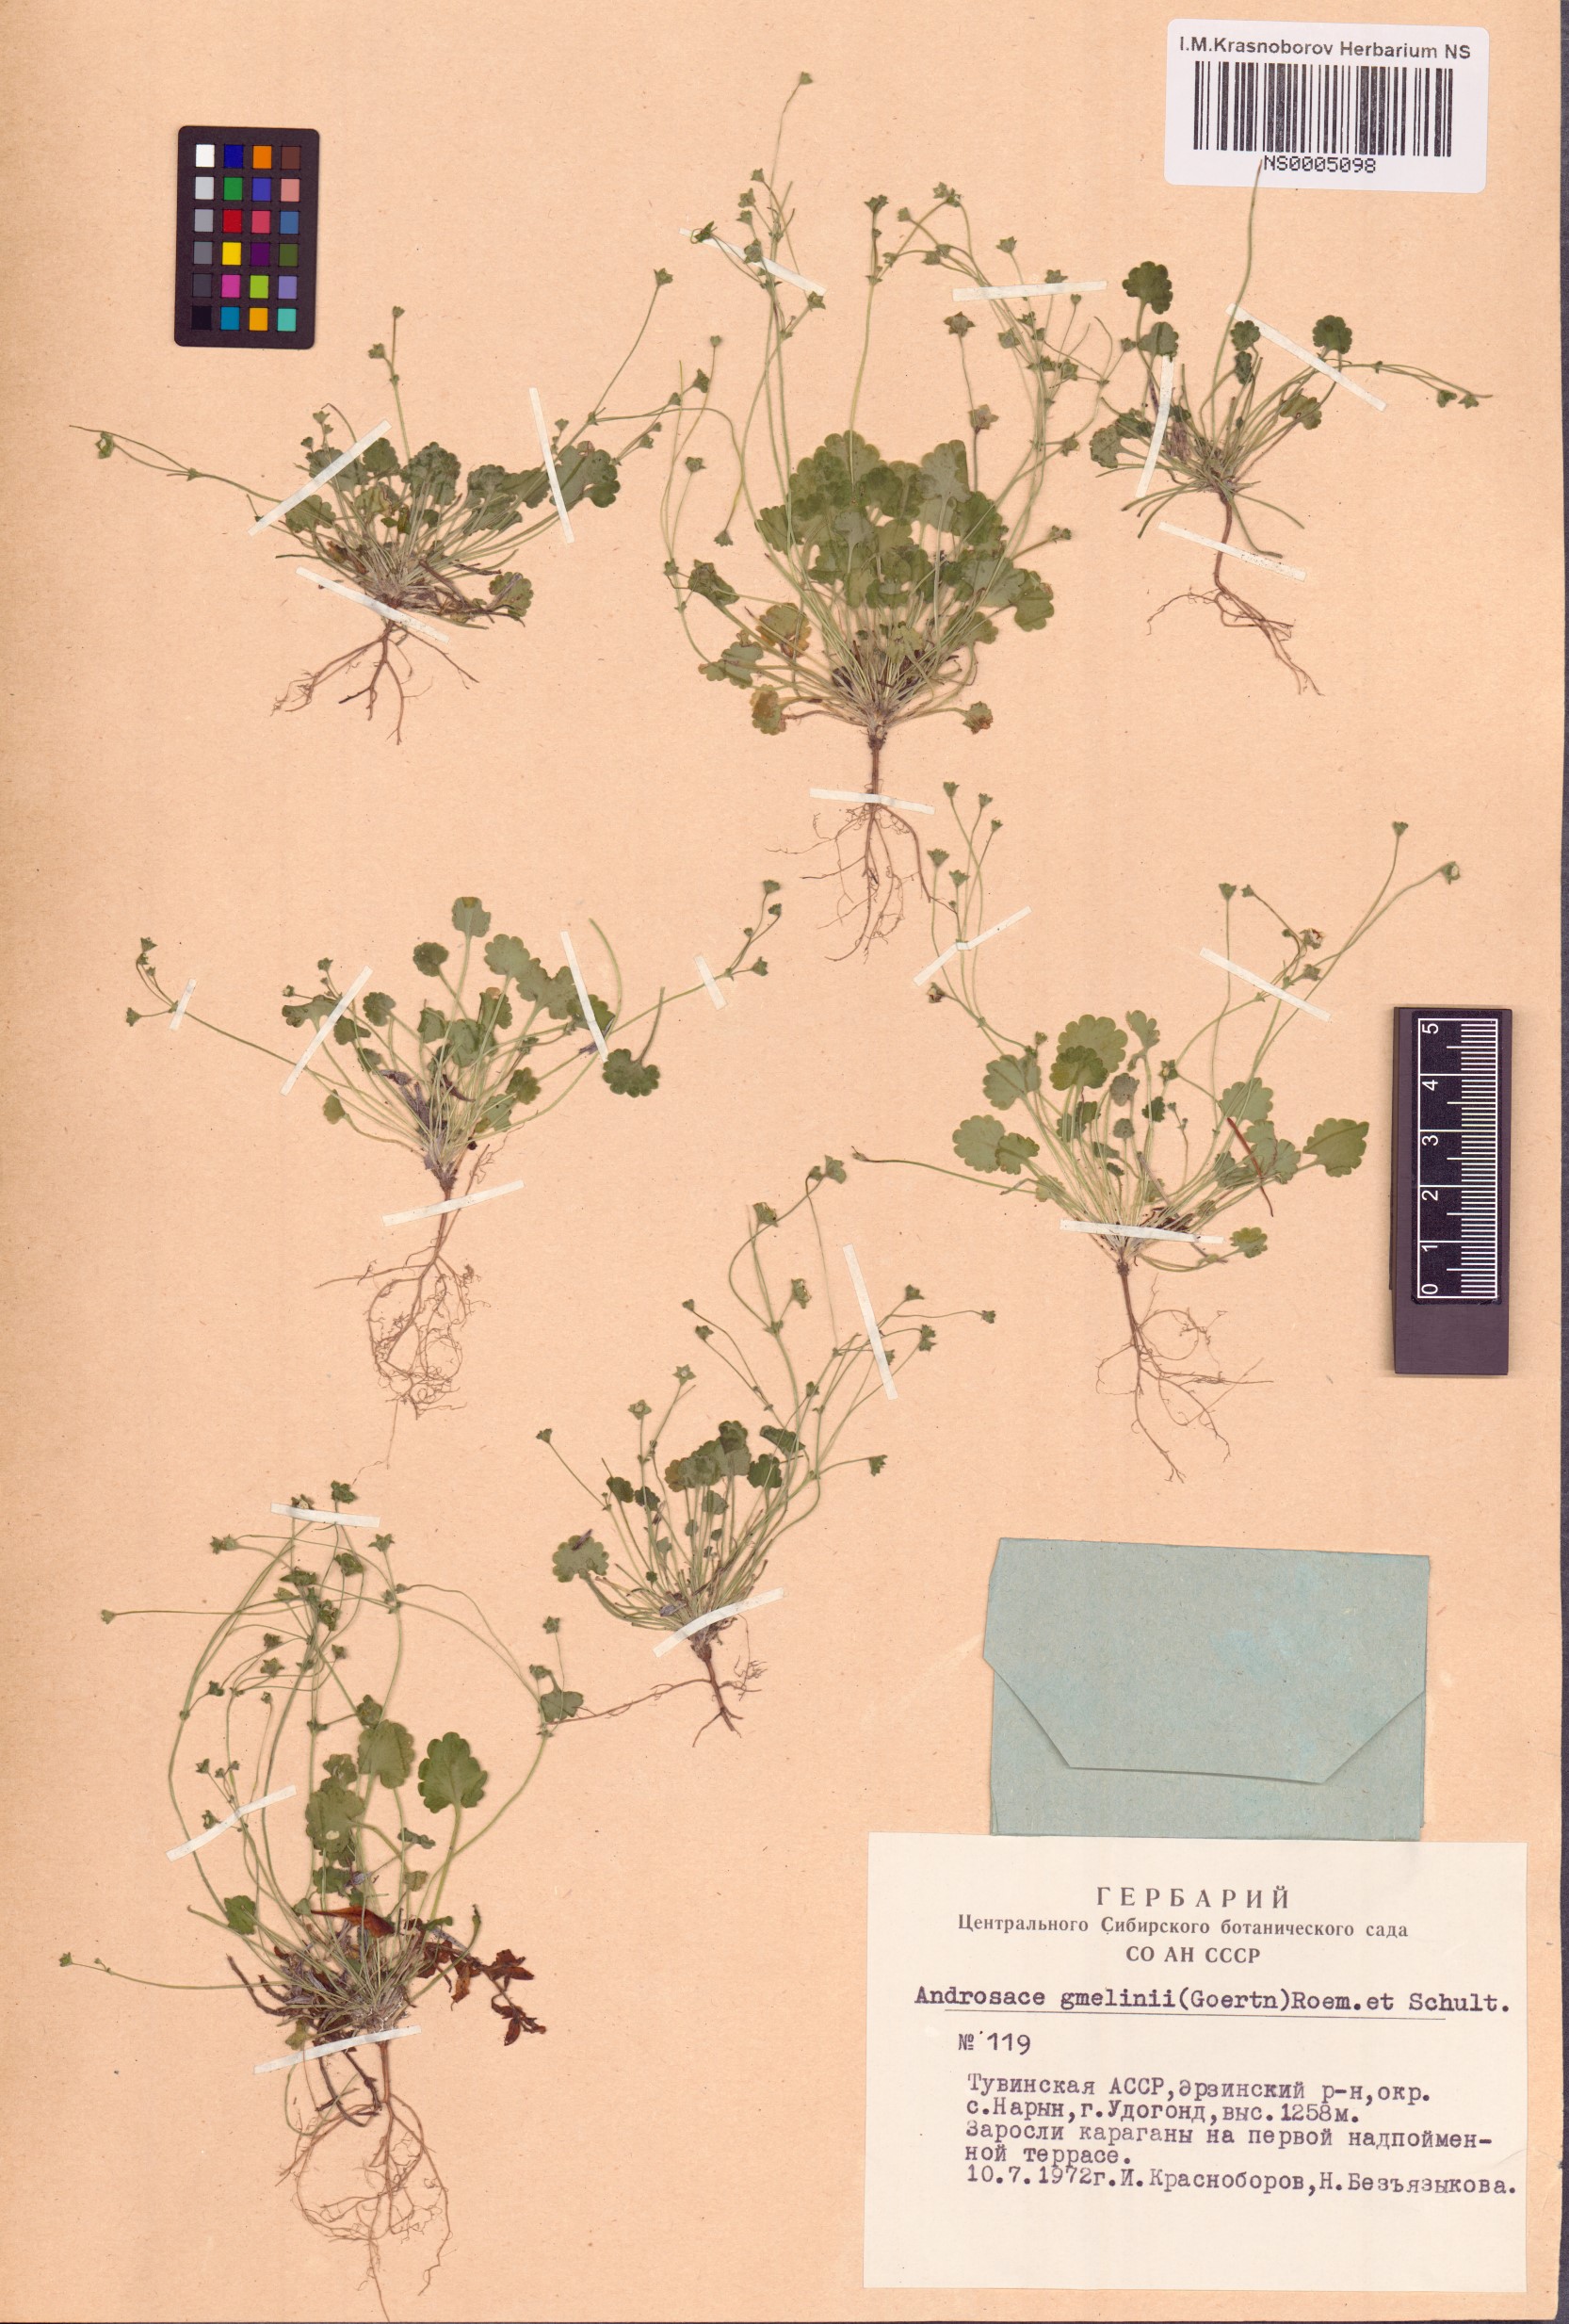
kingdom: Plantae
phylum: Tracheophyta
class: Magnoliopsida
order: Ericales
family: Primulaceae
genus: Androsace
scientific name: Androsace gmelinii
